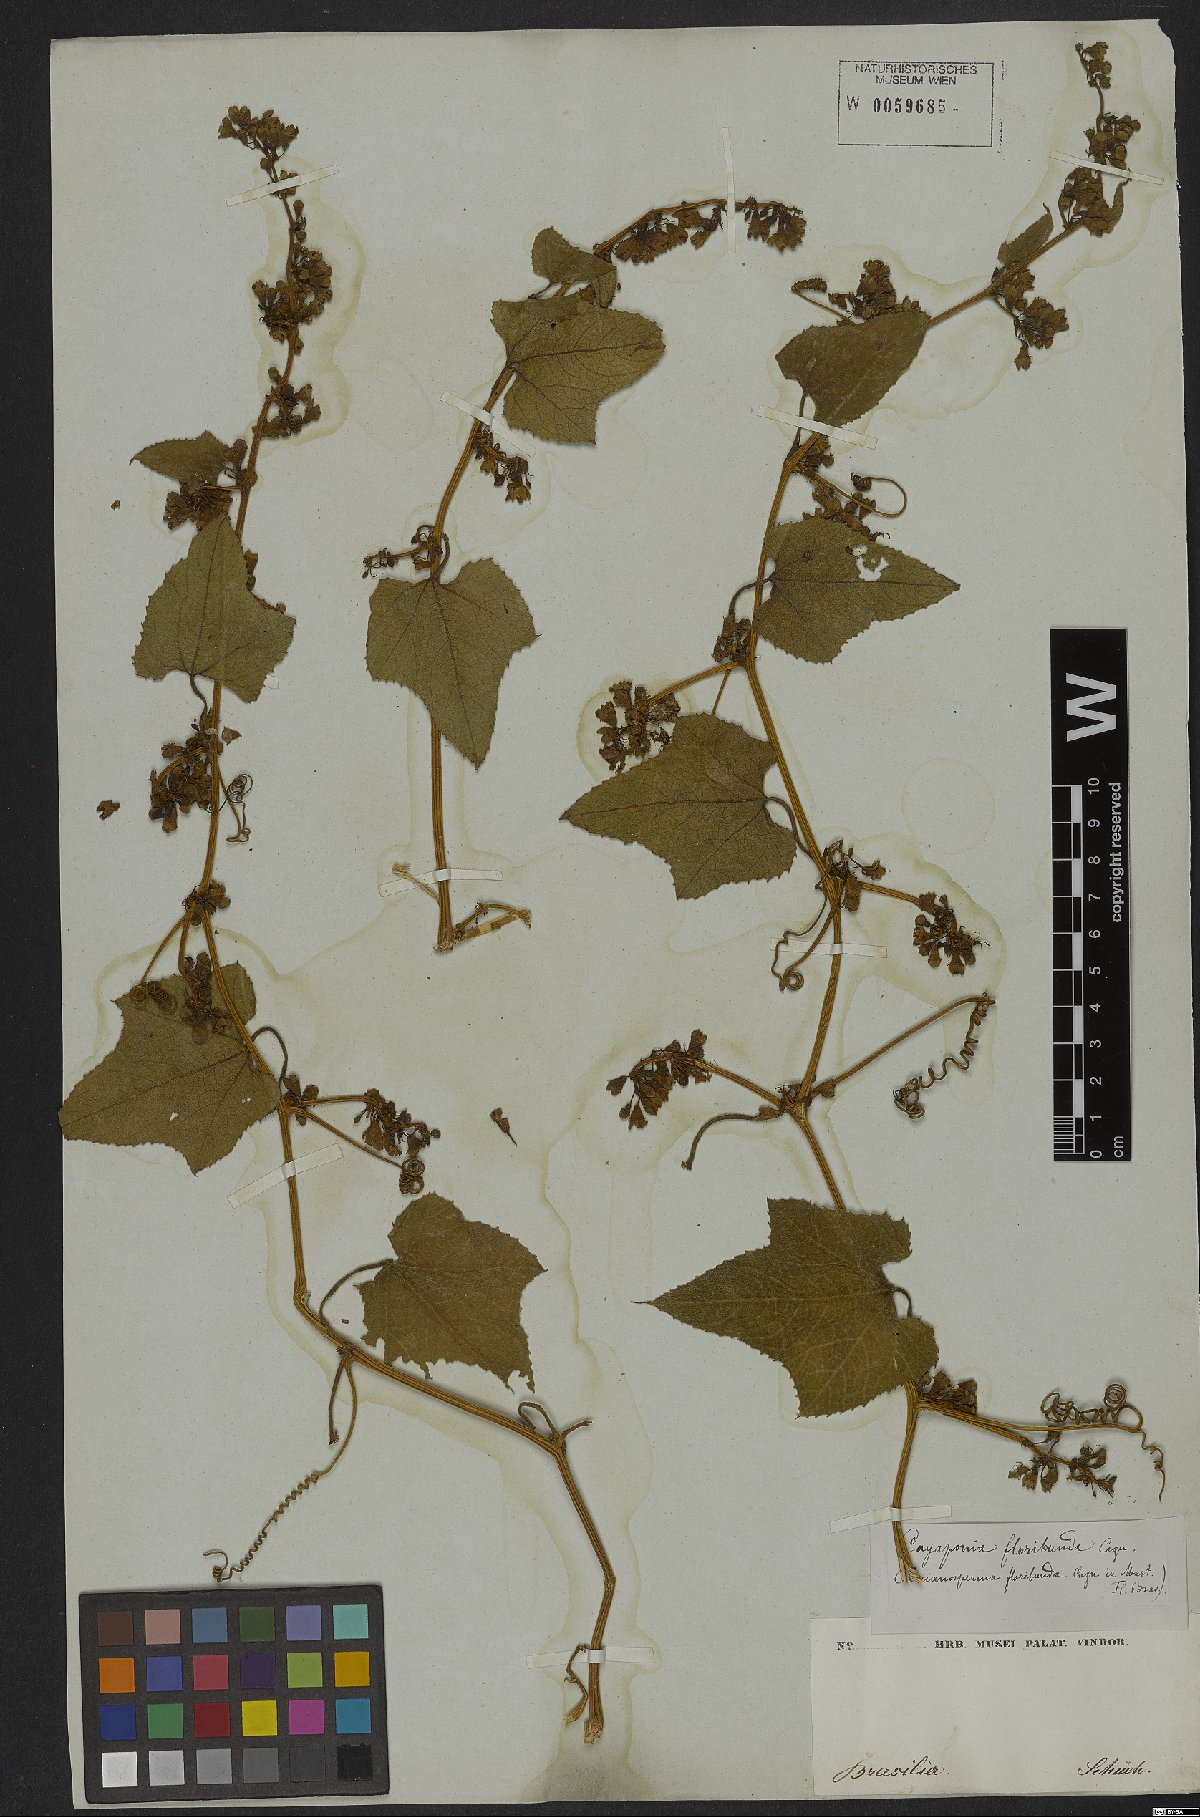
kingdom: Plantae
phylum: Tracheophyta
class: Magnoliopsida
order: Cucurbitales
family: Cucurbitaceae
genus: Cayaponia
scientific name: Cayaponia floribunda
